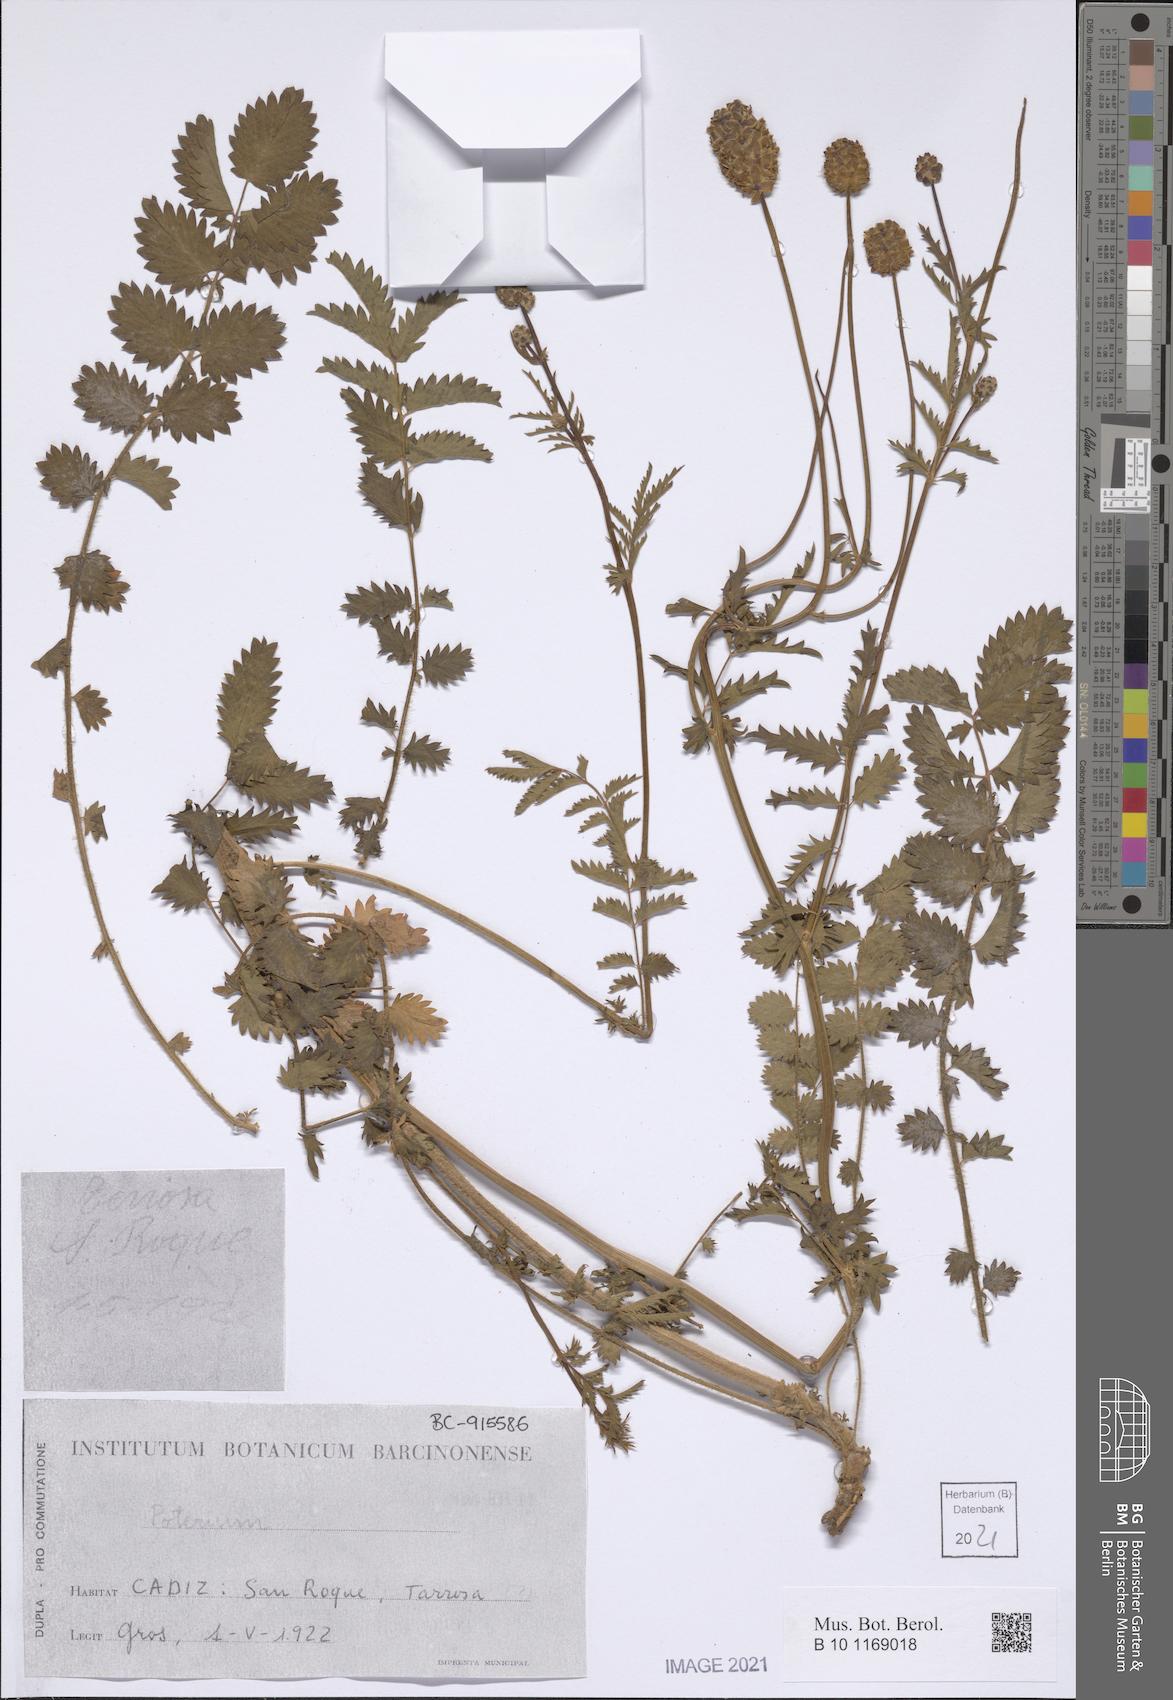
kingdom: Plantae
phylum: Tracheophyta
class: Magnoliopsida
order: Rosales
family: Rosaceae
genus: Poterium
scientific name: Poterium
